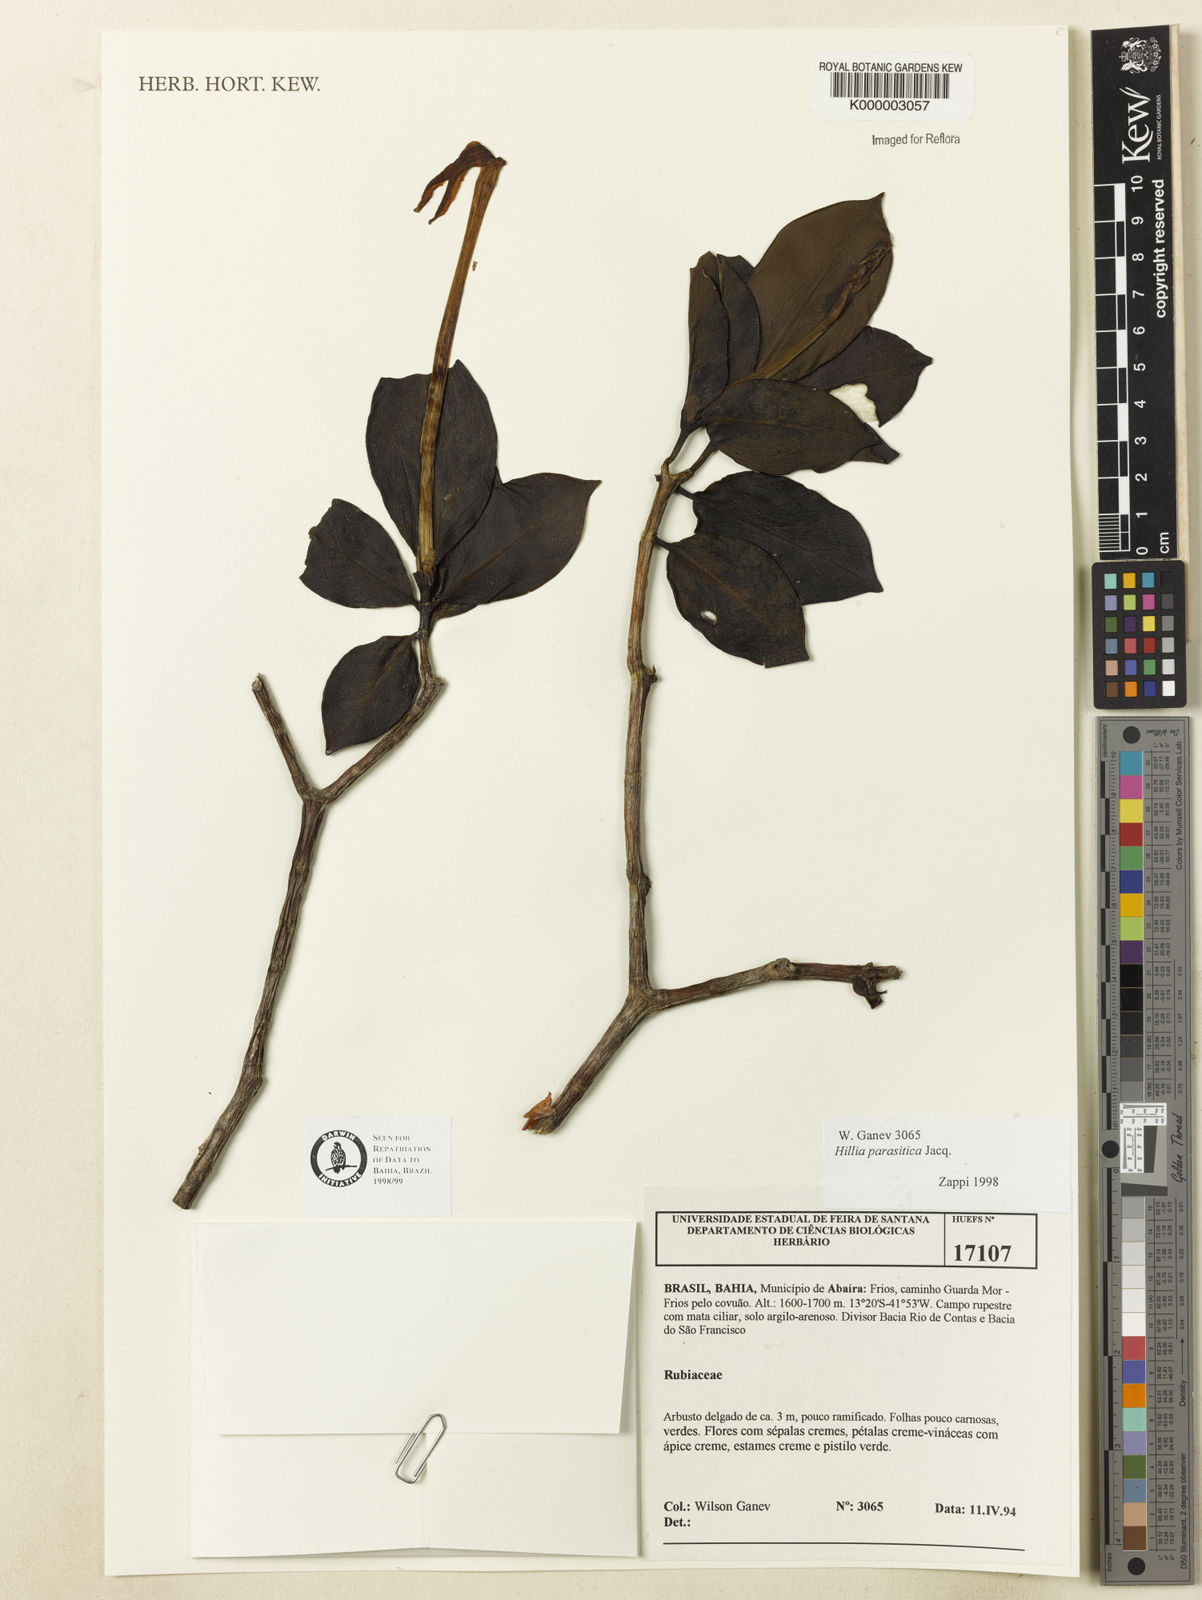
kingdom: Plantae
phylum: Tracheophyta
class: Magnoliopsida
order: Gentianales
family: Rubiaceae
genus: Hillia
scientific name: Hillia parasitica
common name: Morning star
